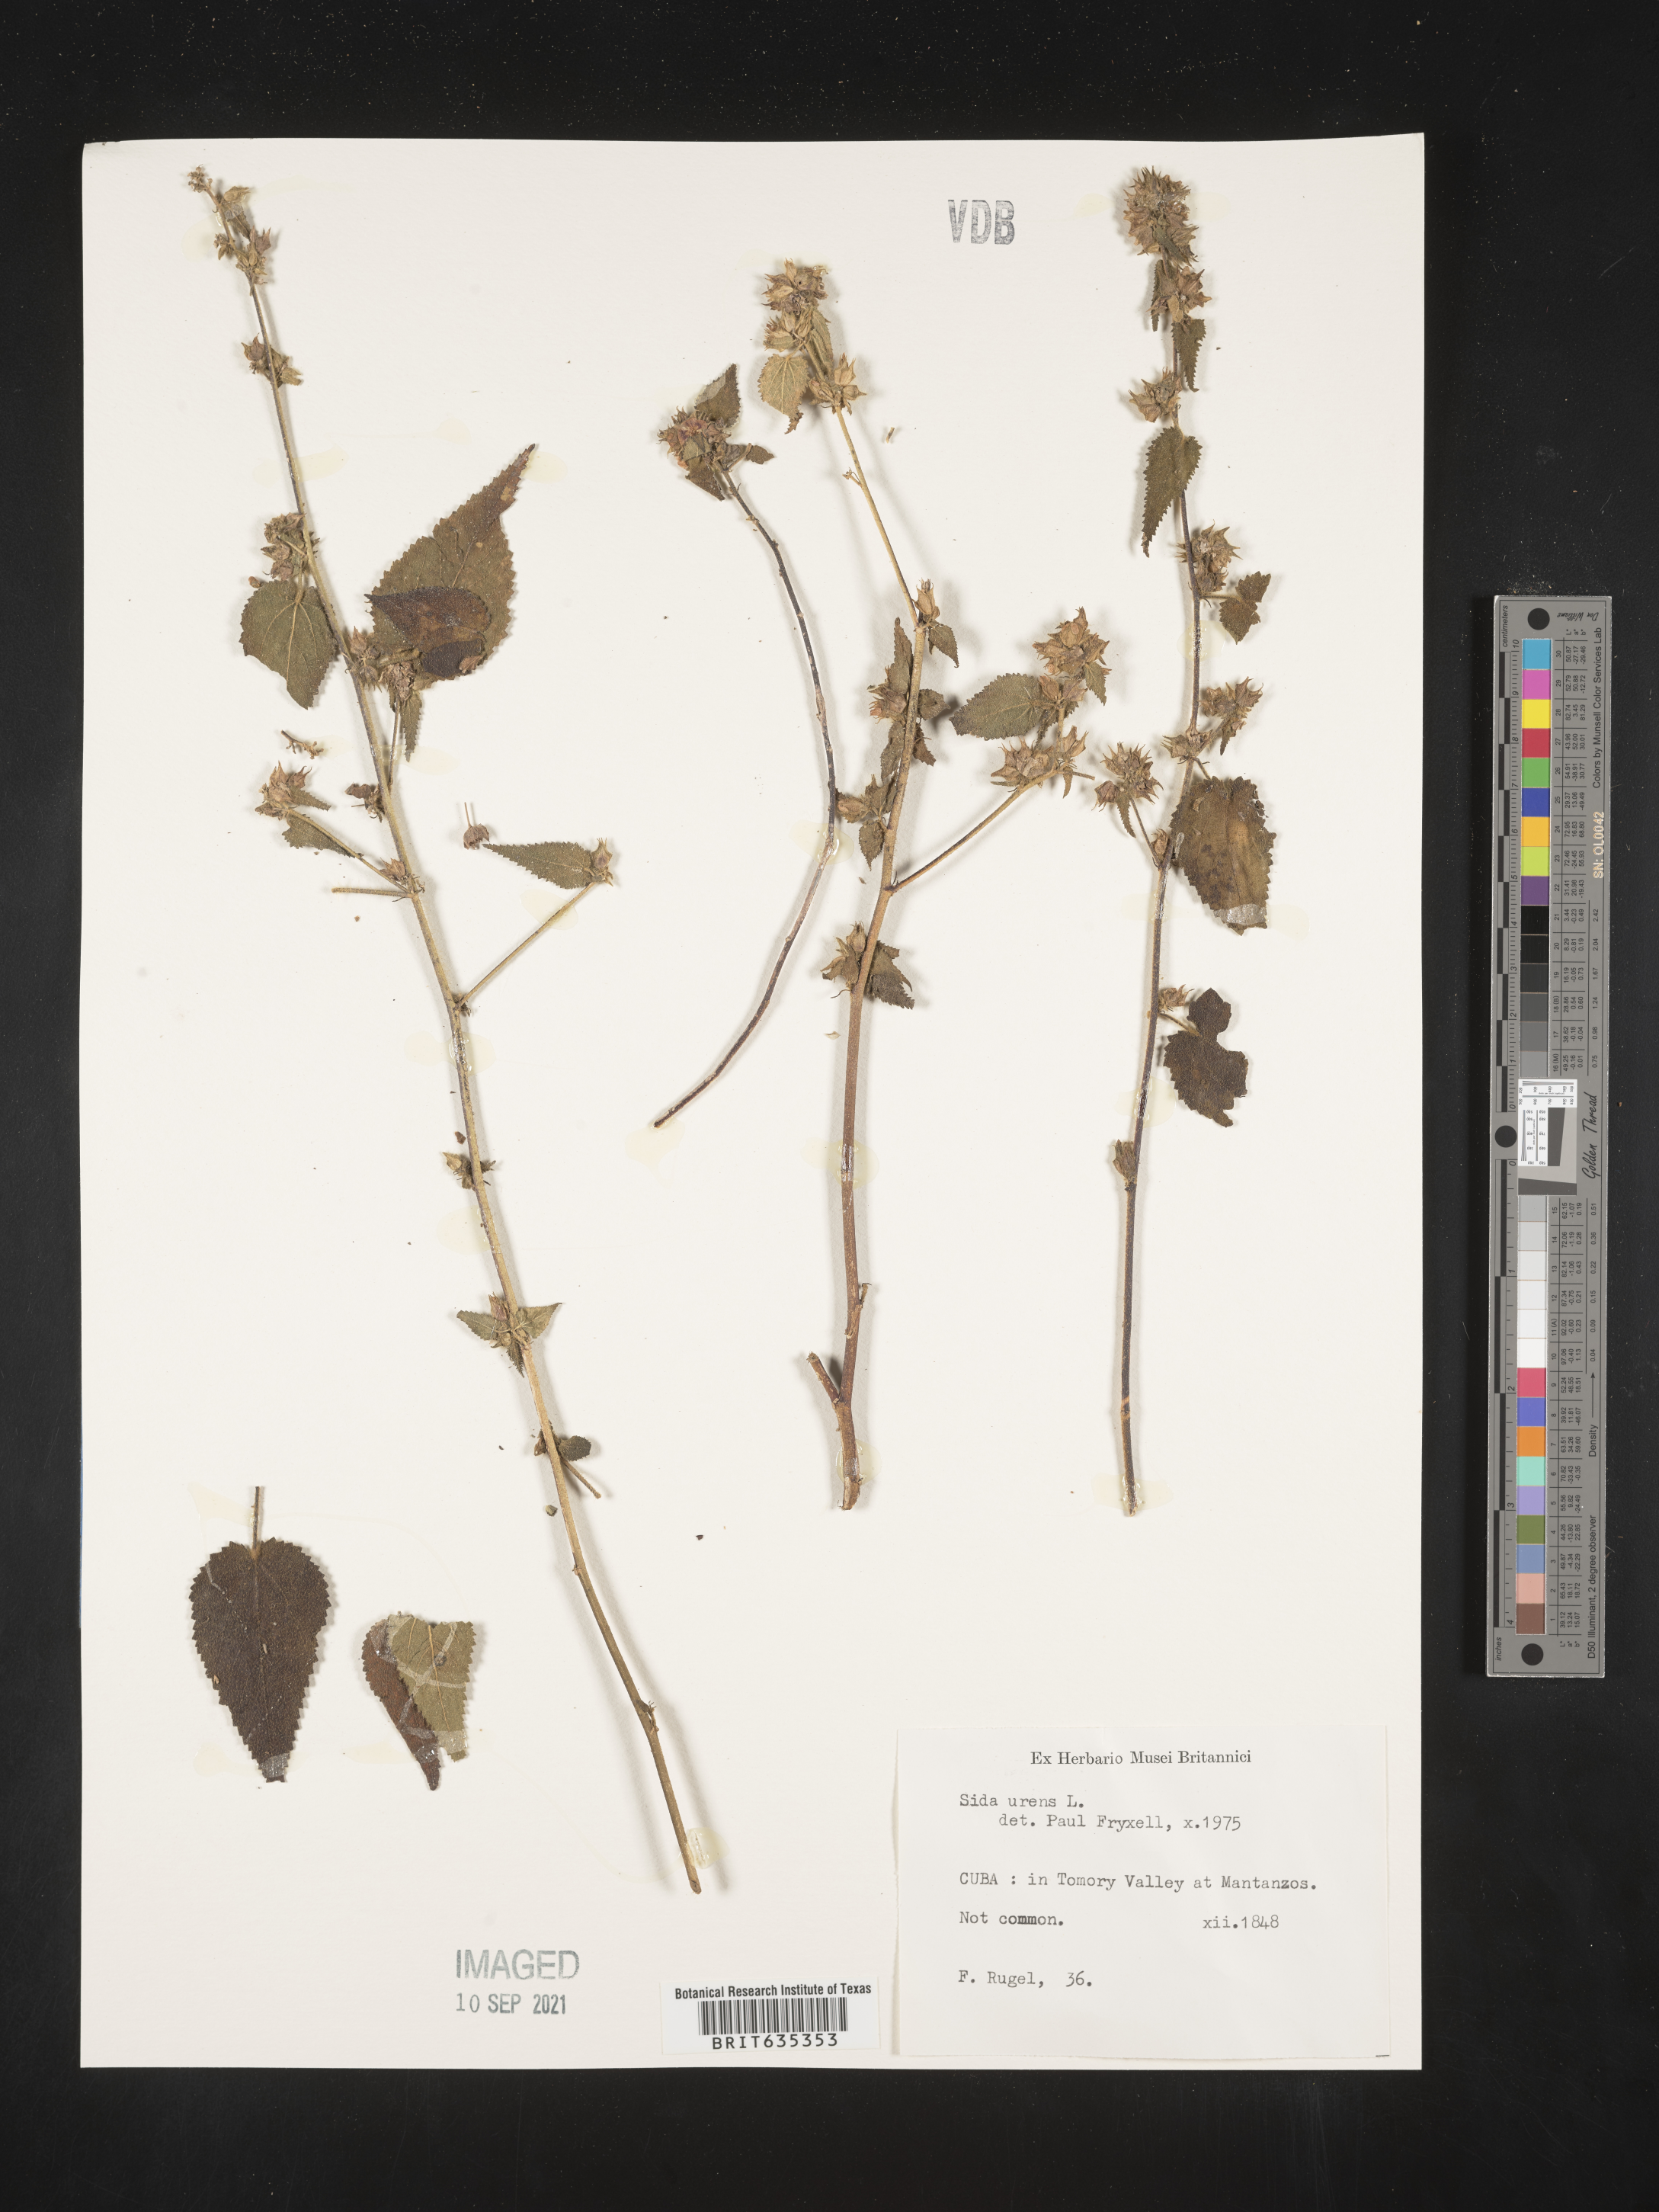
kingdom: Plantae
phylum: Tracheophyta
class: Magnoliopsida
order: Malvales
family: Malvaceae
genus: Sida
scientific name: Sida
